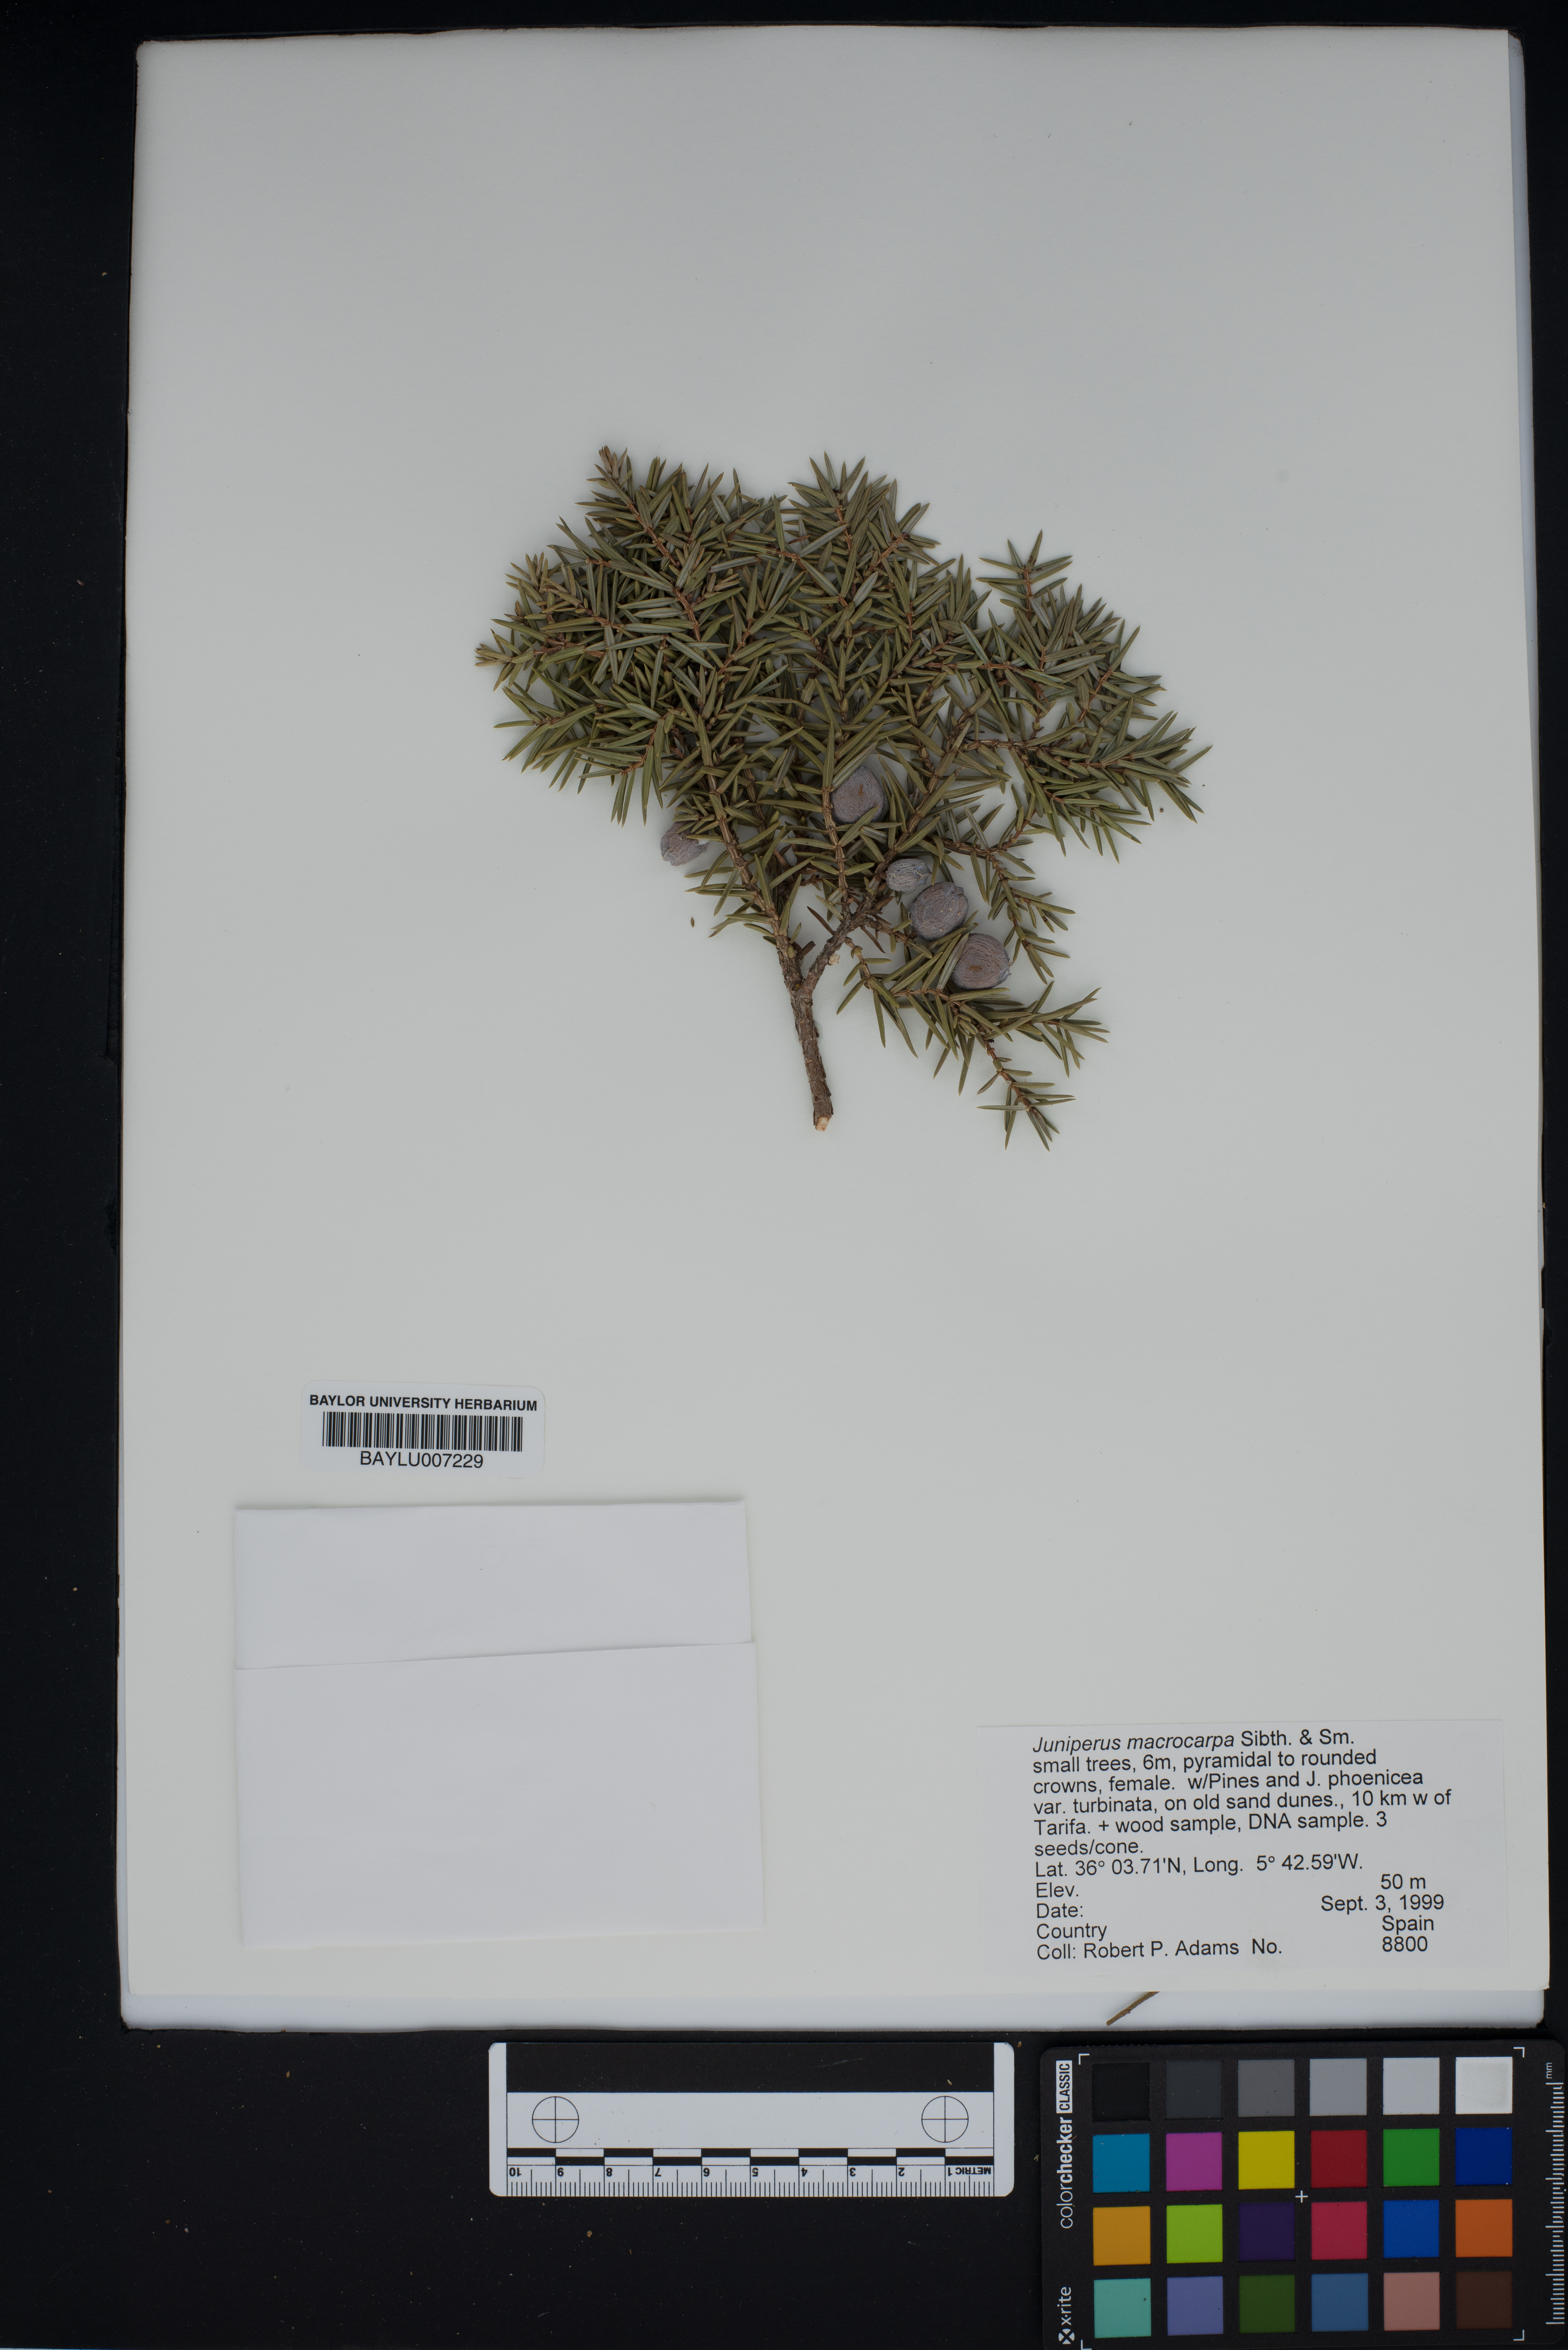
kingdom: Plantae
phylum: Tracheophyta
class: Pinopsida
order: Pinales
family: Cupressaceae
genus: Juniperus
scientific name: Juniperus oxycedrus
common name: Prickly juniper
